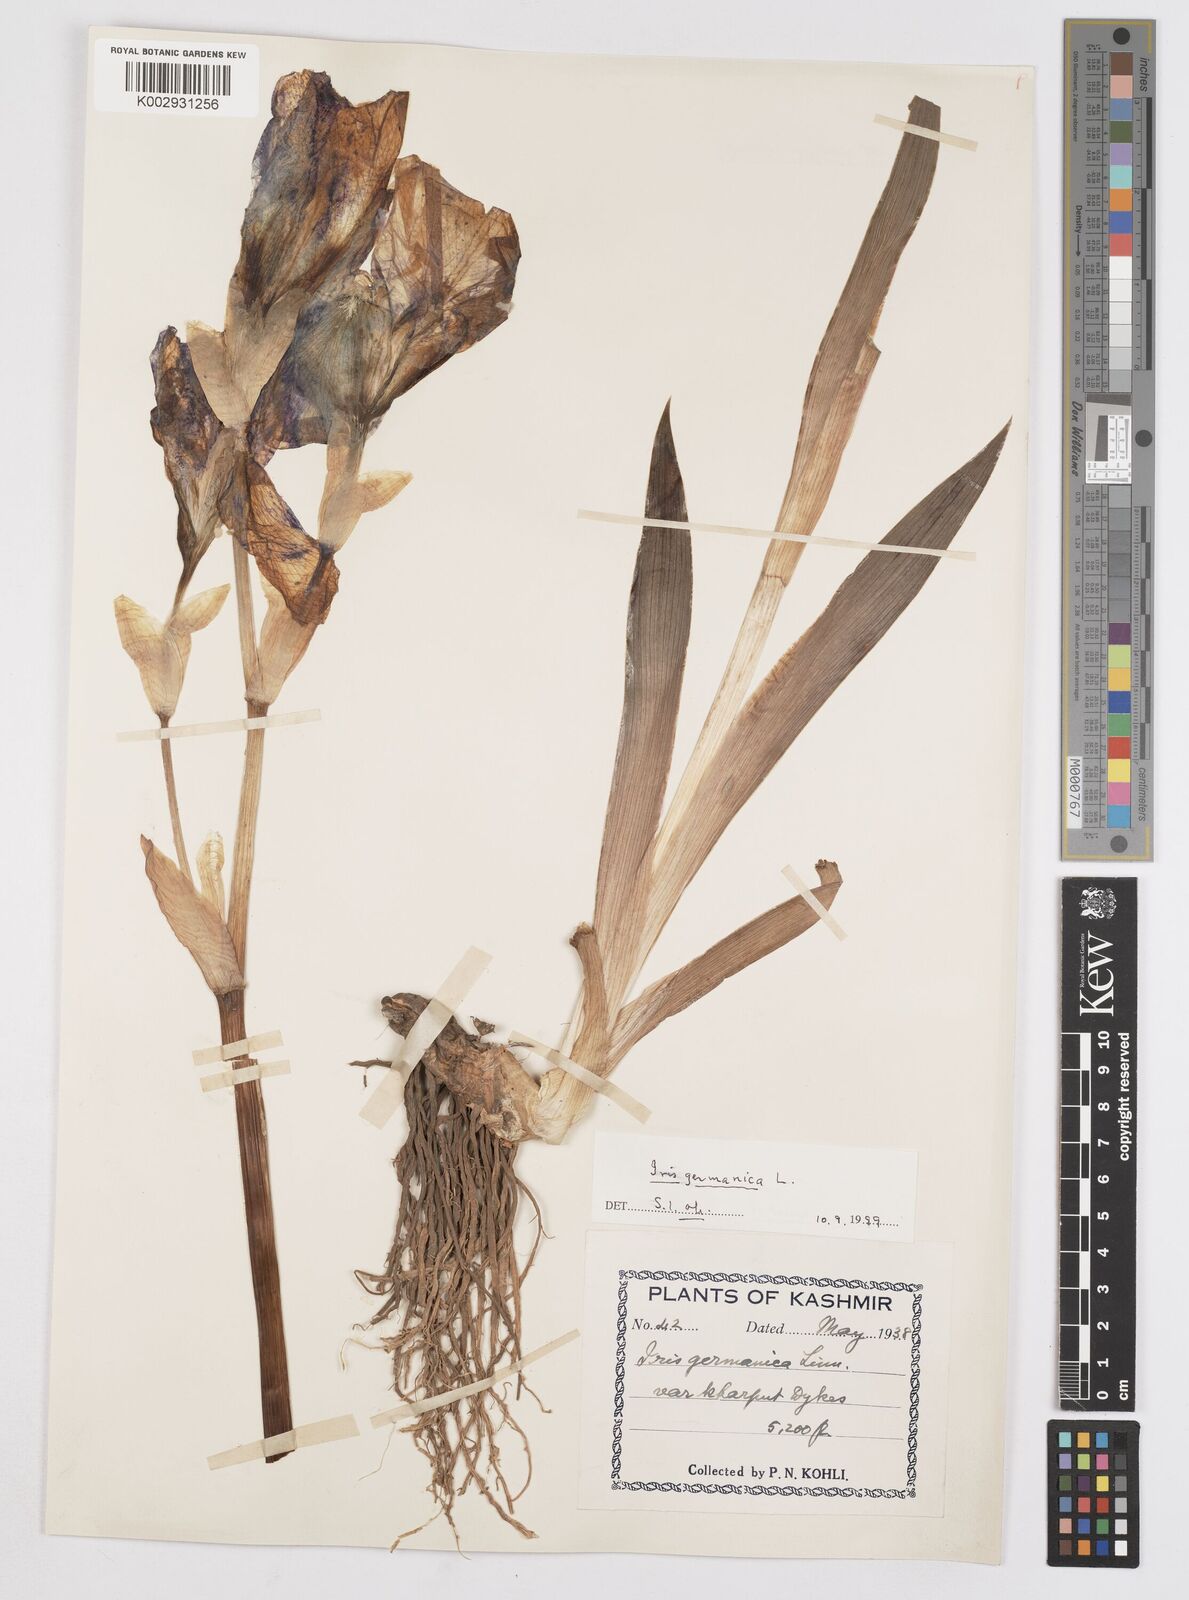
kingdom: Plantae
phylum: Tracheophyta
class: Liliopsida
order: Asparagales
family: Iridaceae
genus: Iris
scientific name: Iris germanica
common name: German iris
